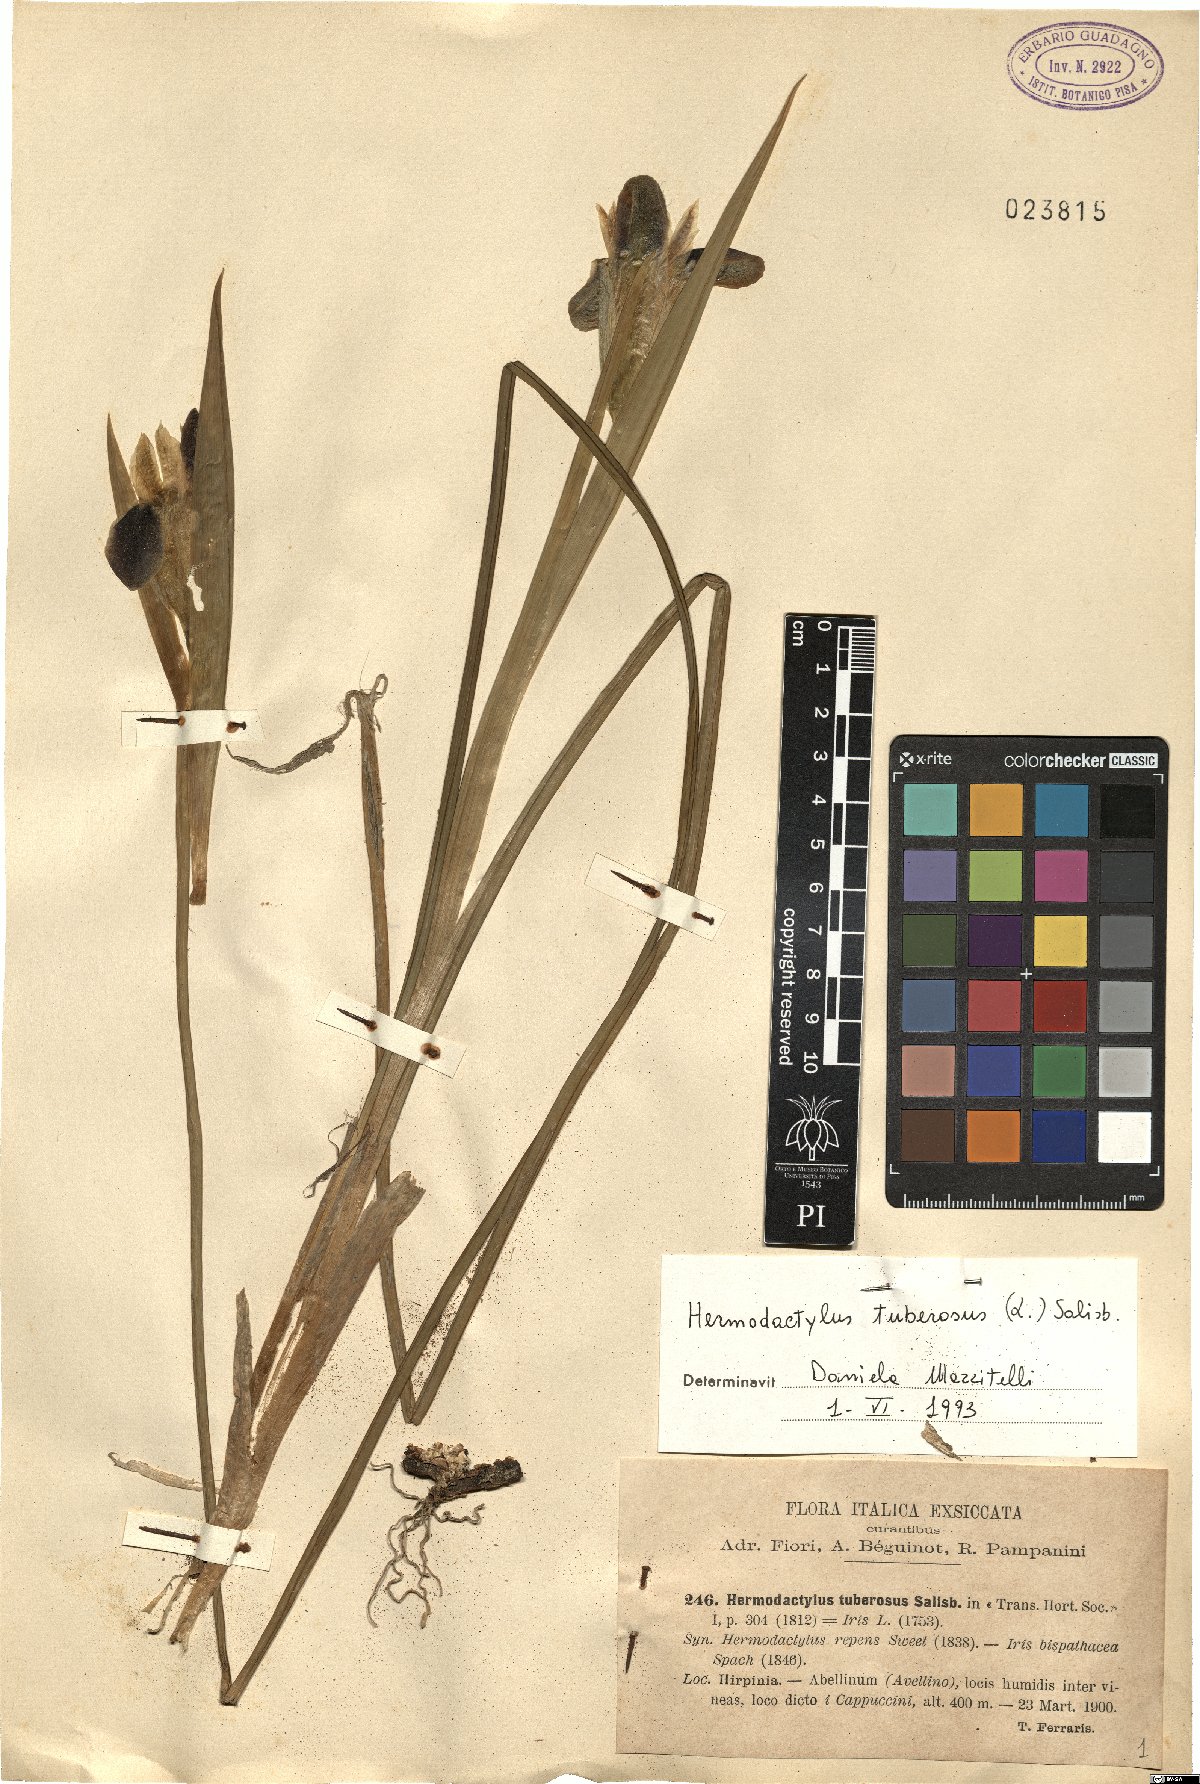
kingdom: Plantae
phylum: Tracheophyta
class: Liliopsida
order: Asparagales
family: Iridaceae
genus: Iris
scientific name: Iris tuberosa
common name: Snake's-head iris
